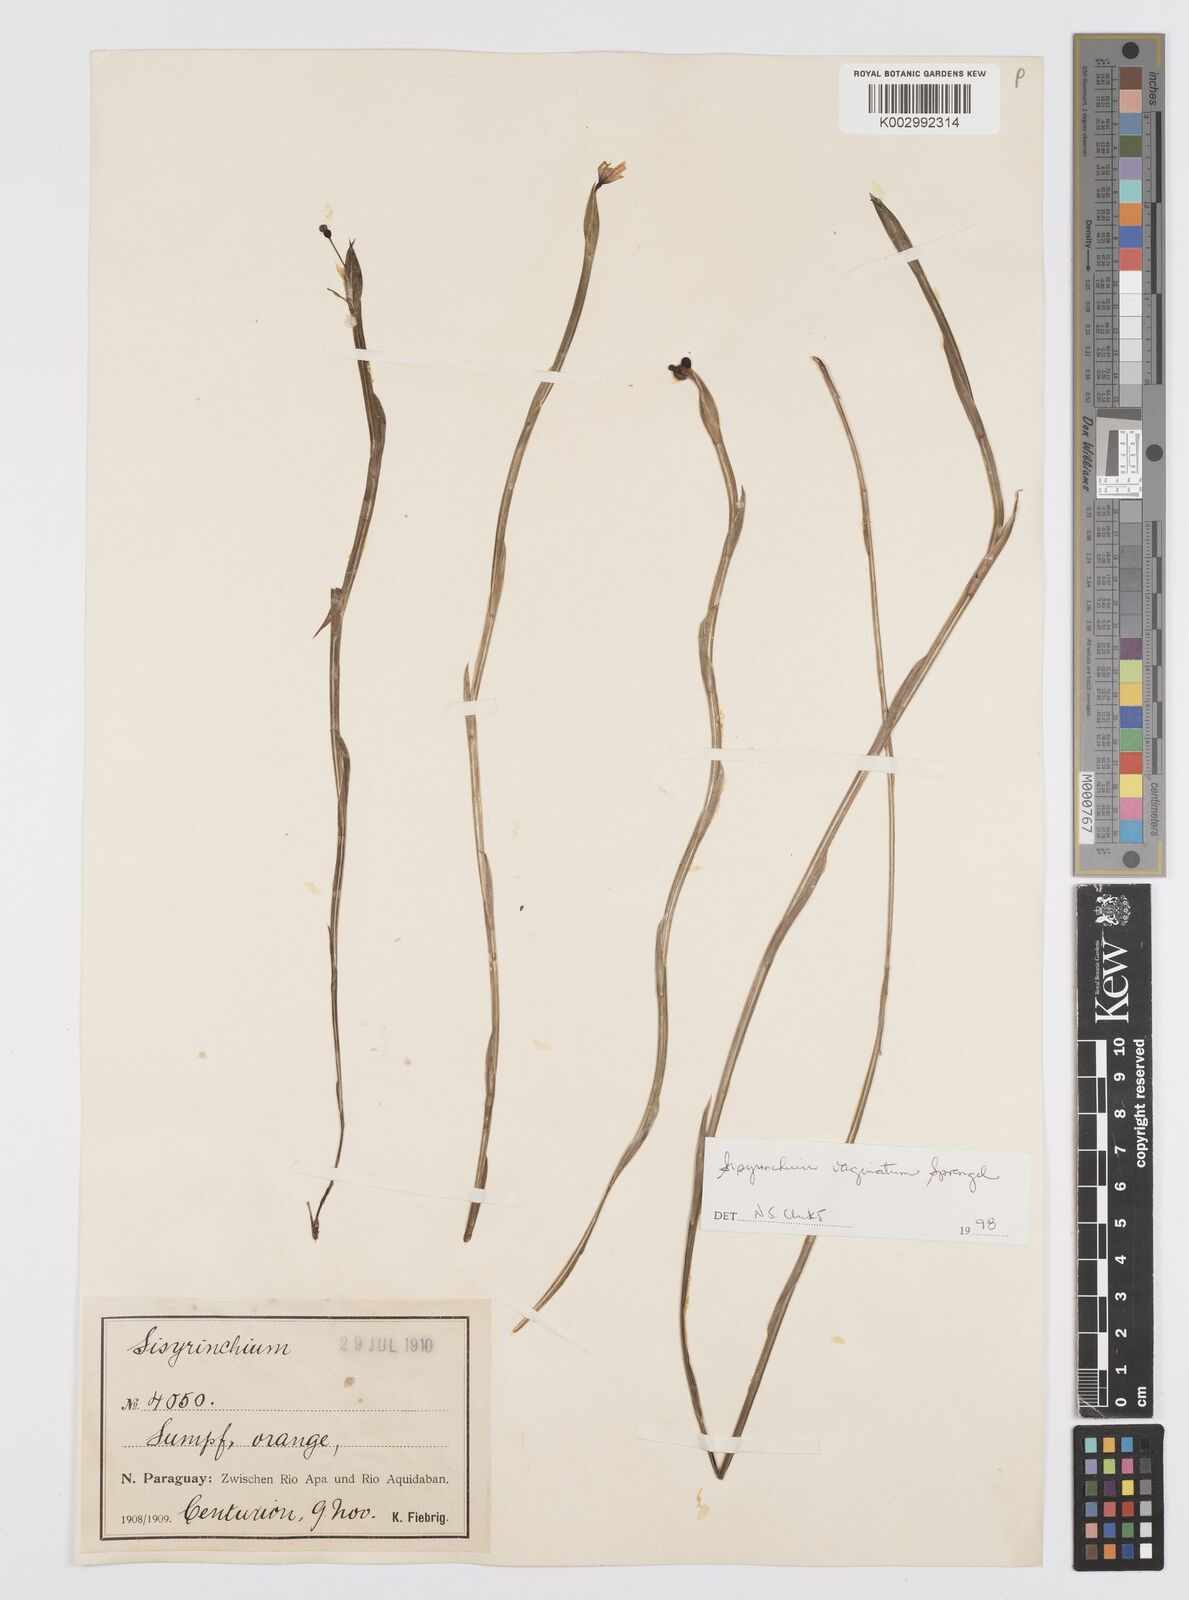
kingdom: Plantae
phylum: Tracheophyta
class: Liliopsida
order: Asparagales
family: Iridaceae
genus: Sisyrinchium
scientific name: Sisyrinchium vaginatum
